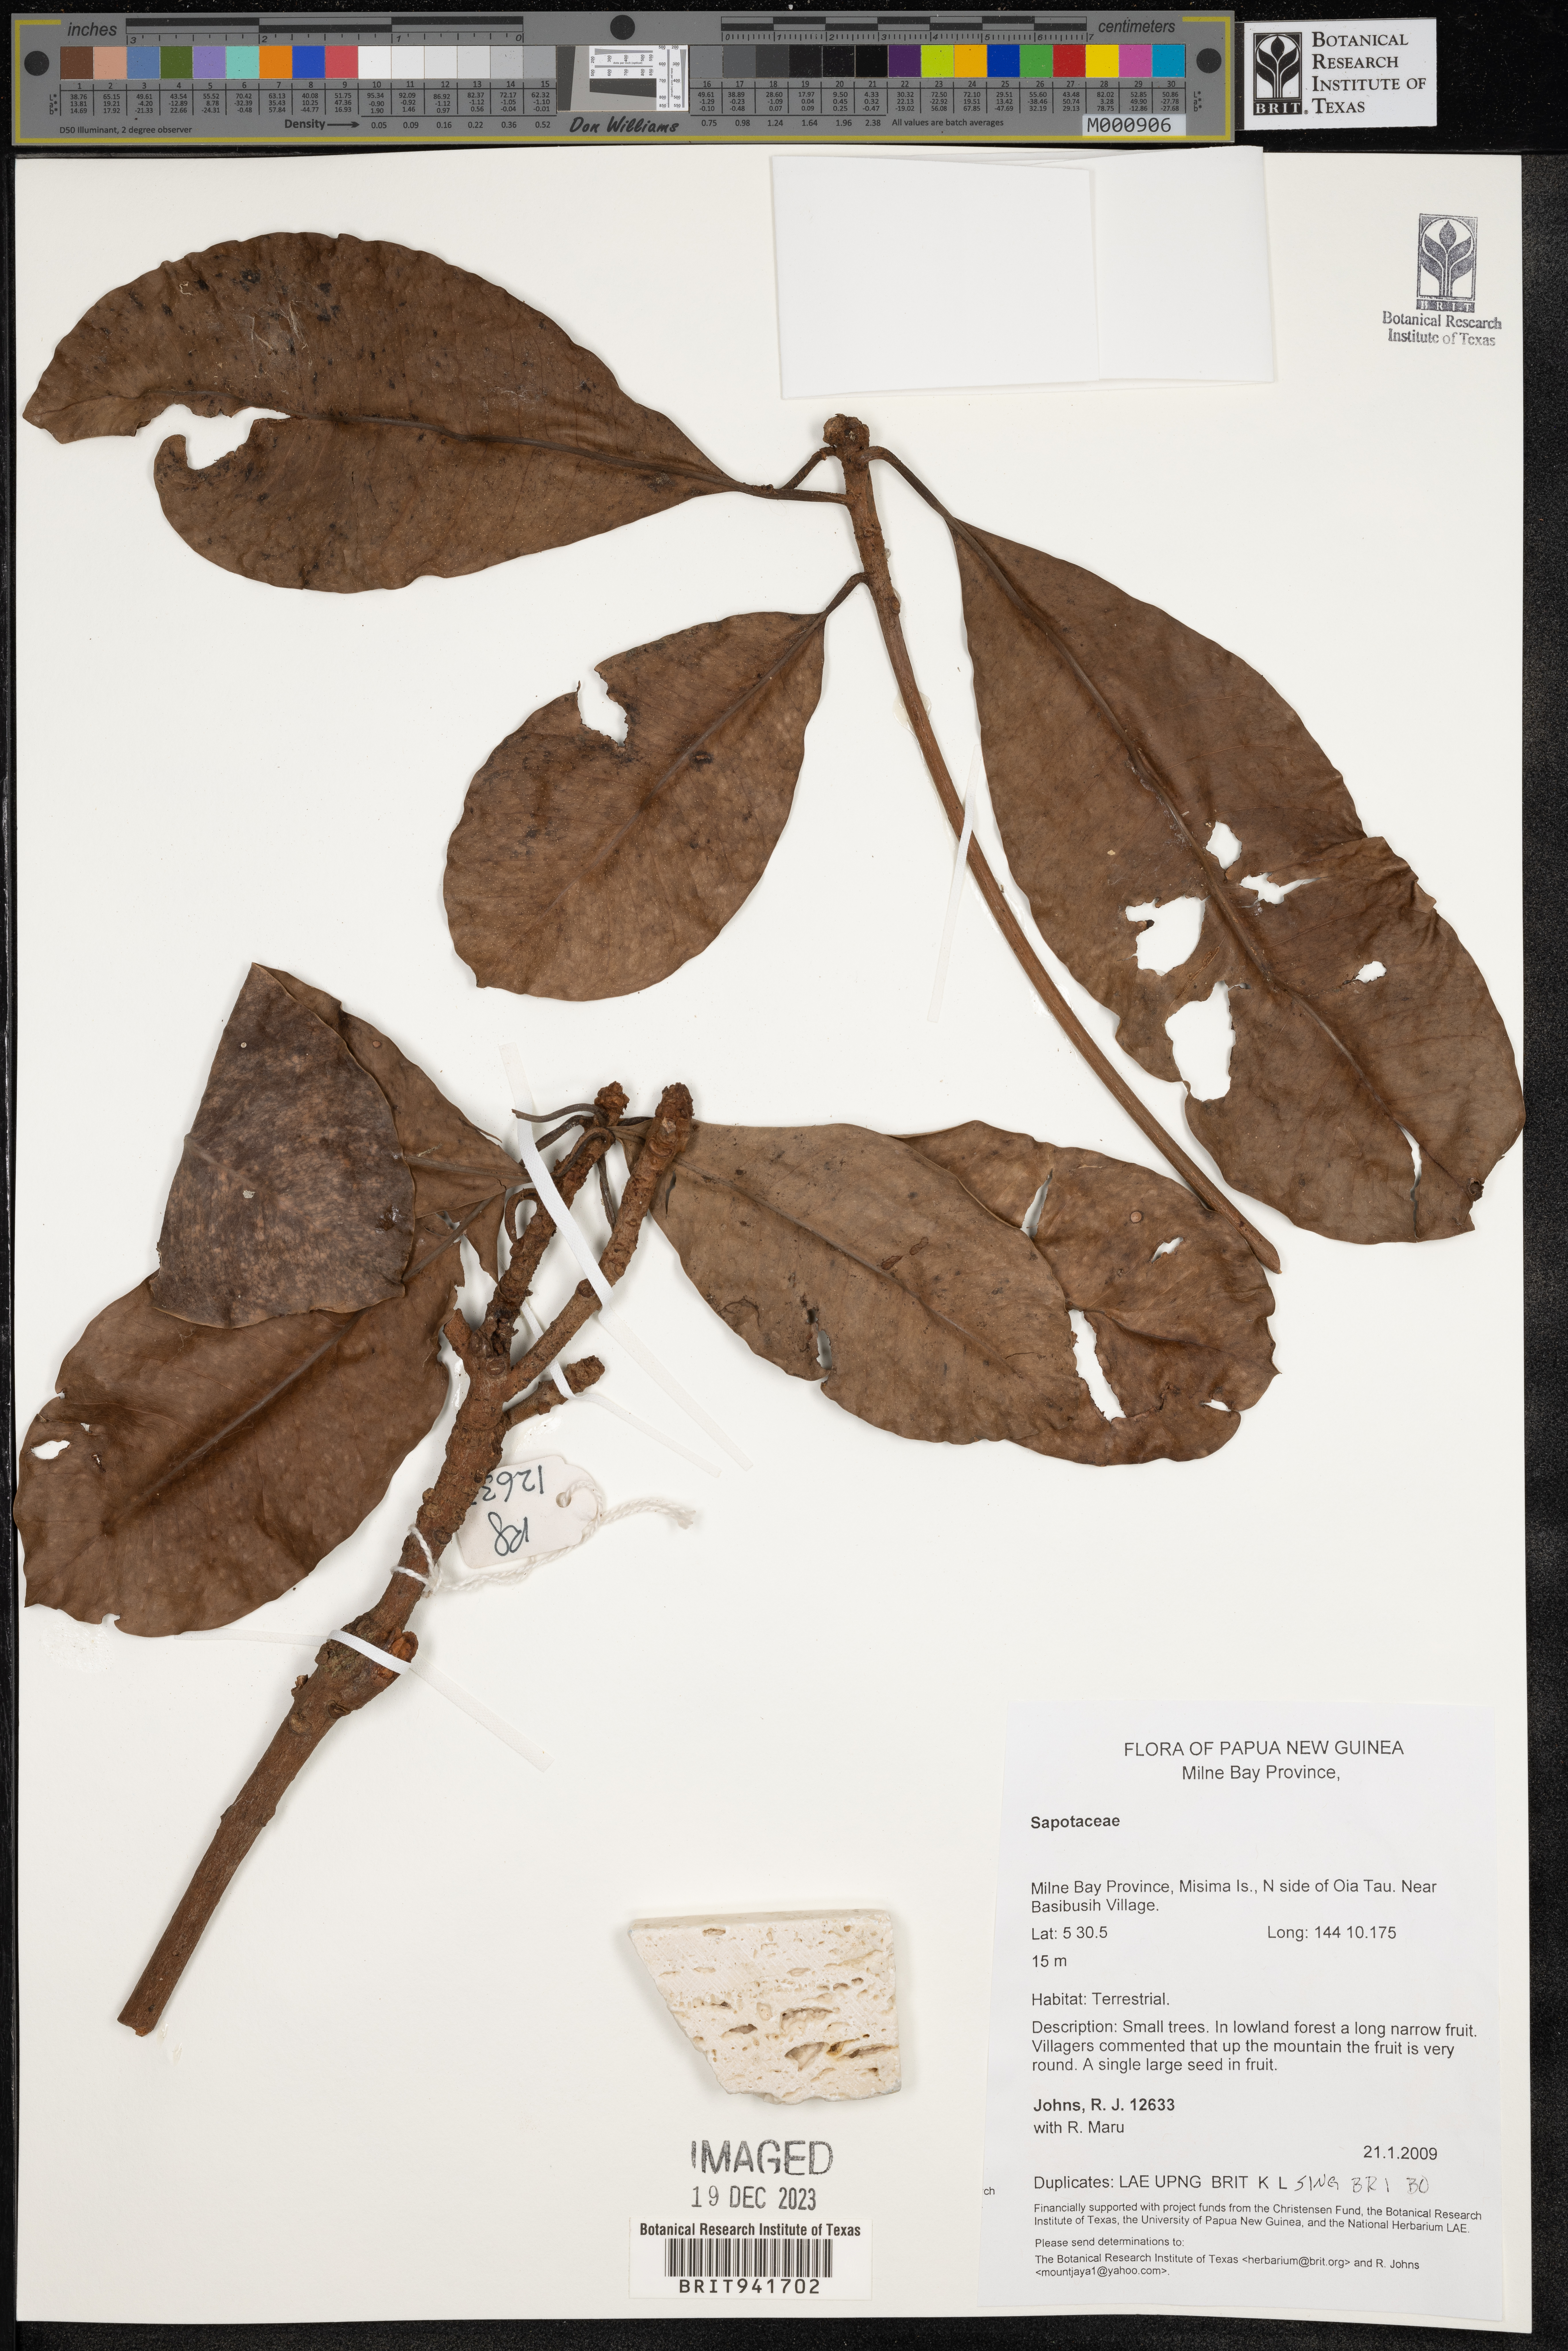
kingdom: Plantae
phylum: Tracheophyta
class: Magnoliopsida
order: Ericales
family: Sapotaceae
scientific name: Sapotaceae
